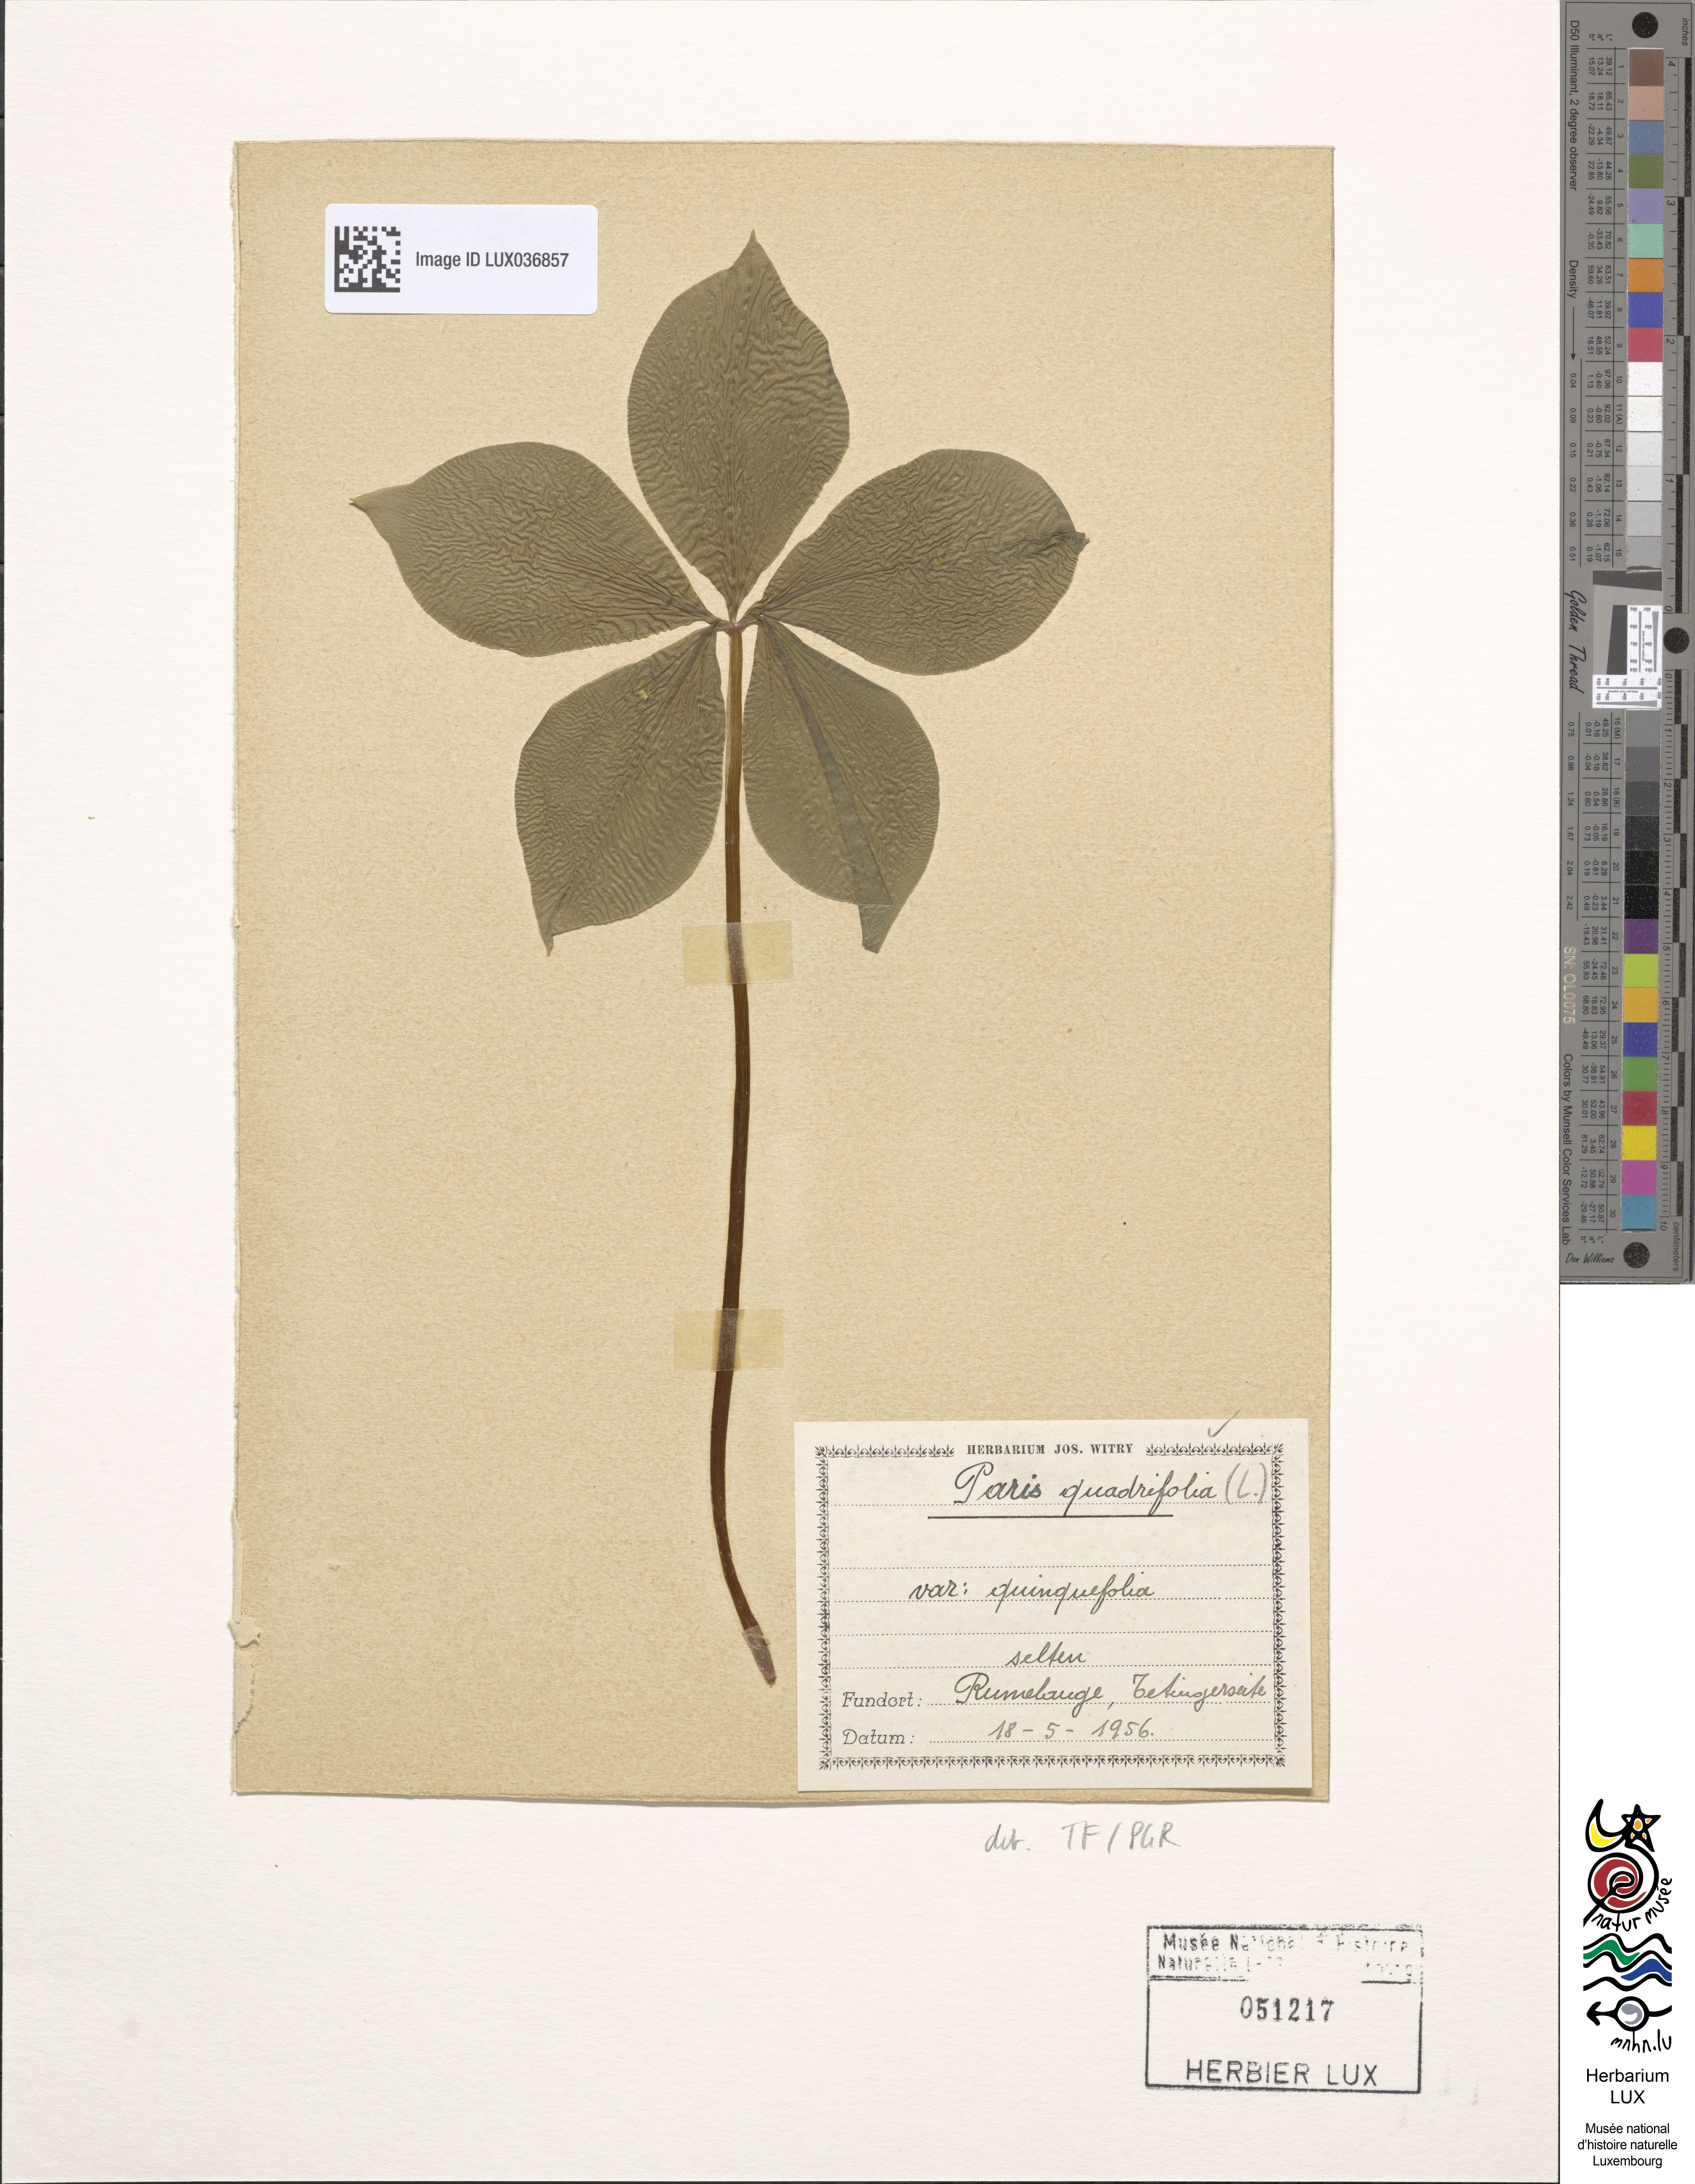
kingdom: Plantae
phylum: Tracheophyta
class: Liliopsida
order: Liliales
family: Melanthiaceae
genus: Paris
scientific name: Paris quadrifolia
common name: Herb-paris
